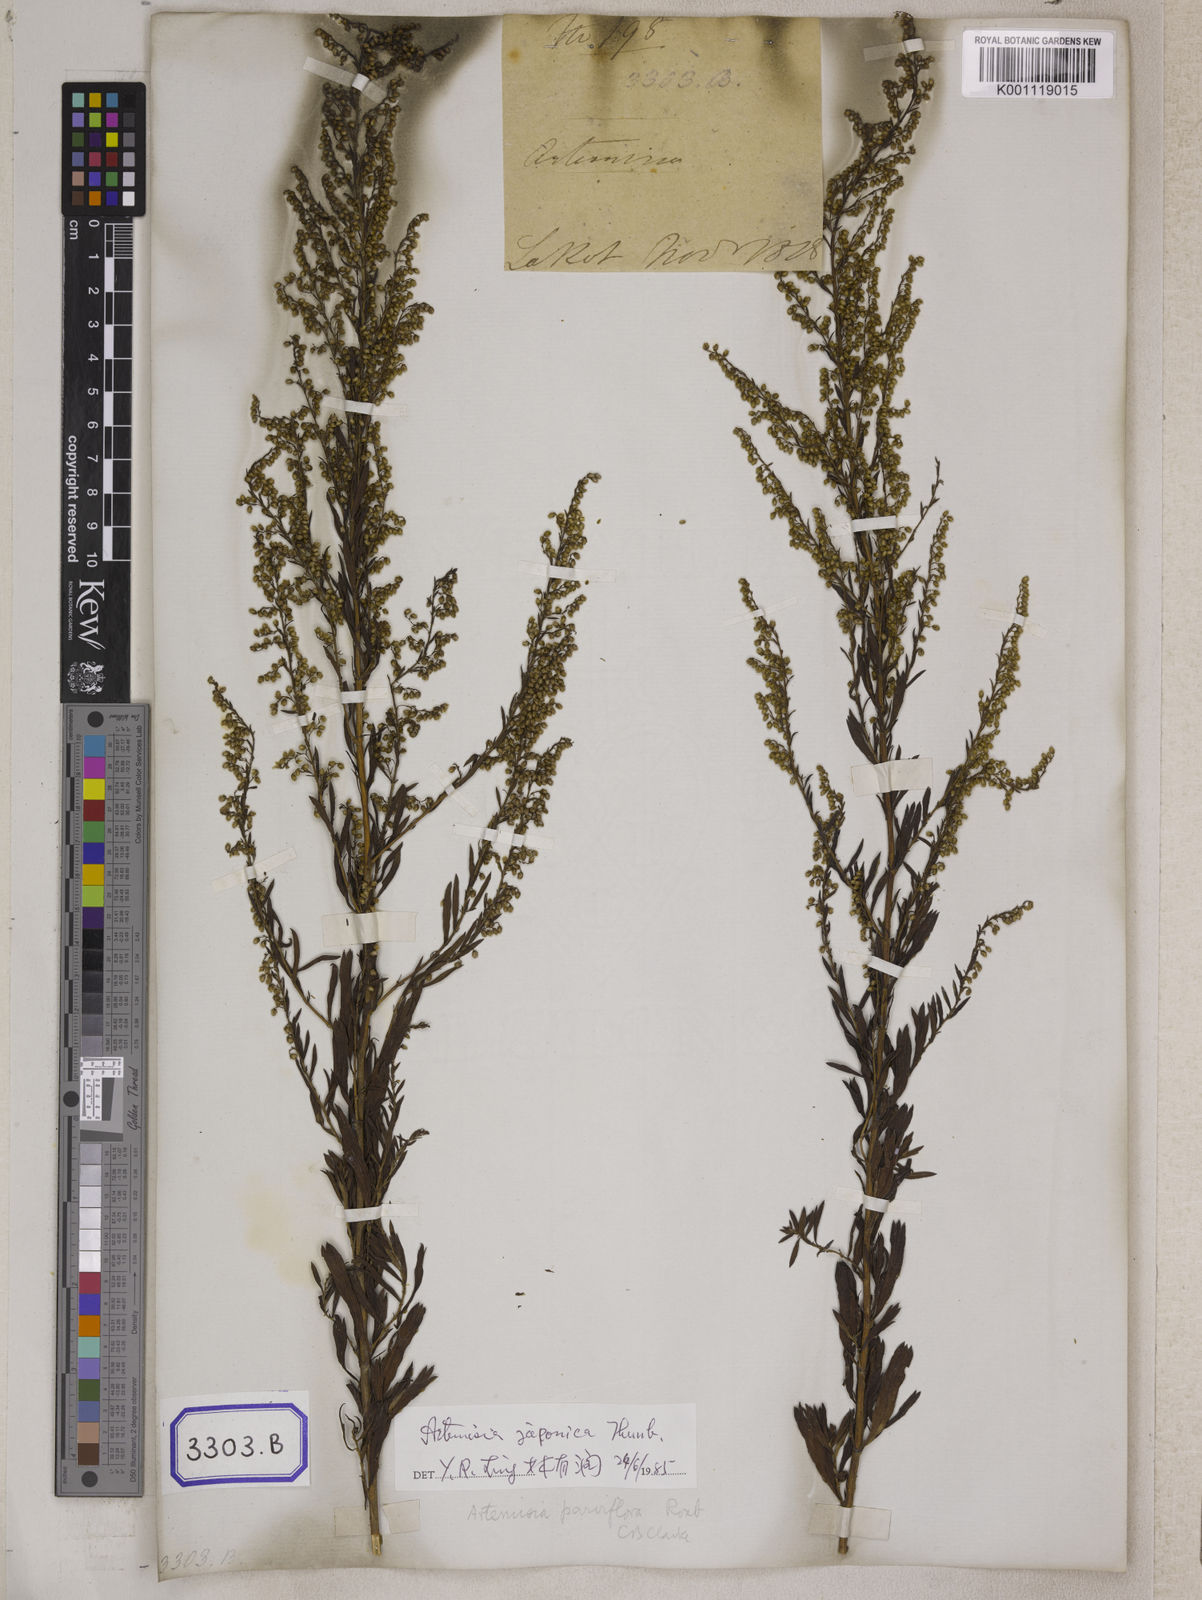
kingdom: Plantae
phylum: Tracheophyta
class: Magnoliopsida
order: Asterales
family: Asteraceae
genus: Artemisia
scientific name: Artemisia
